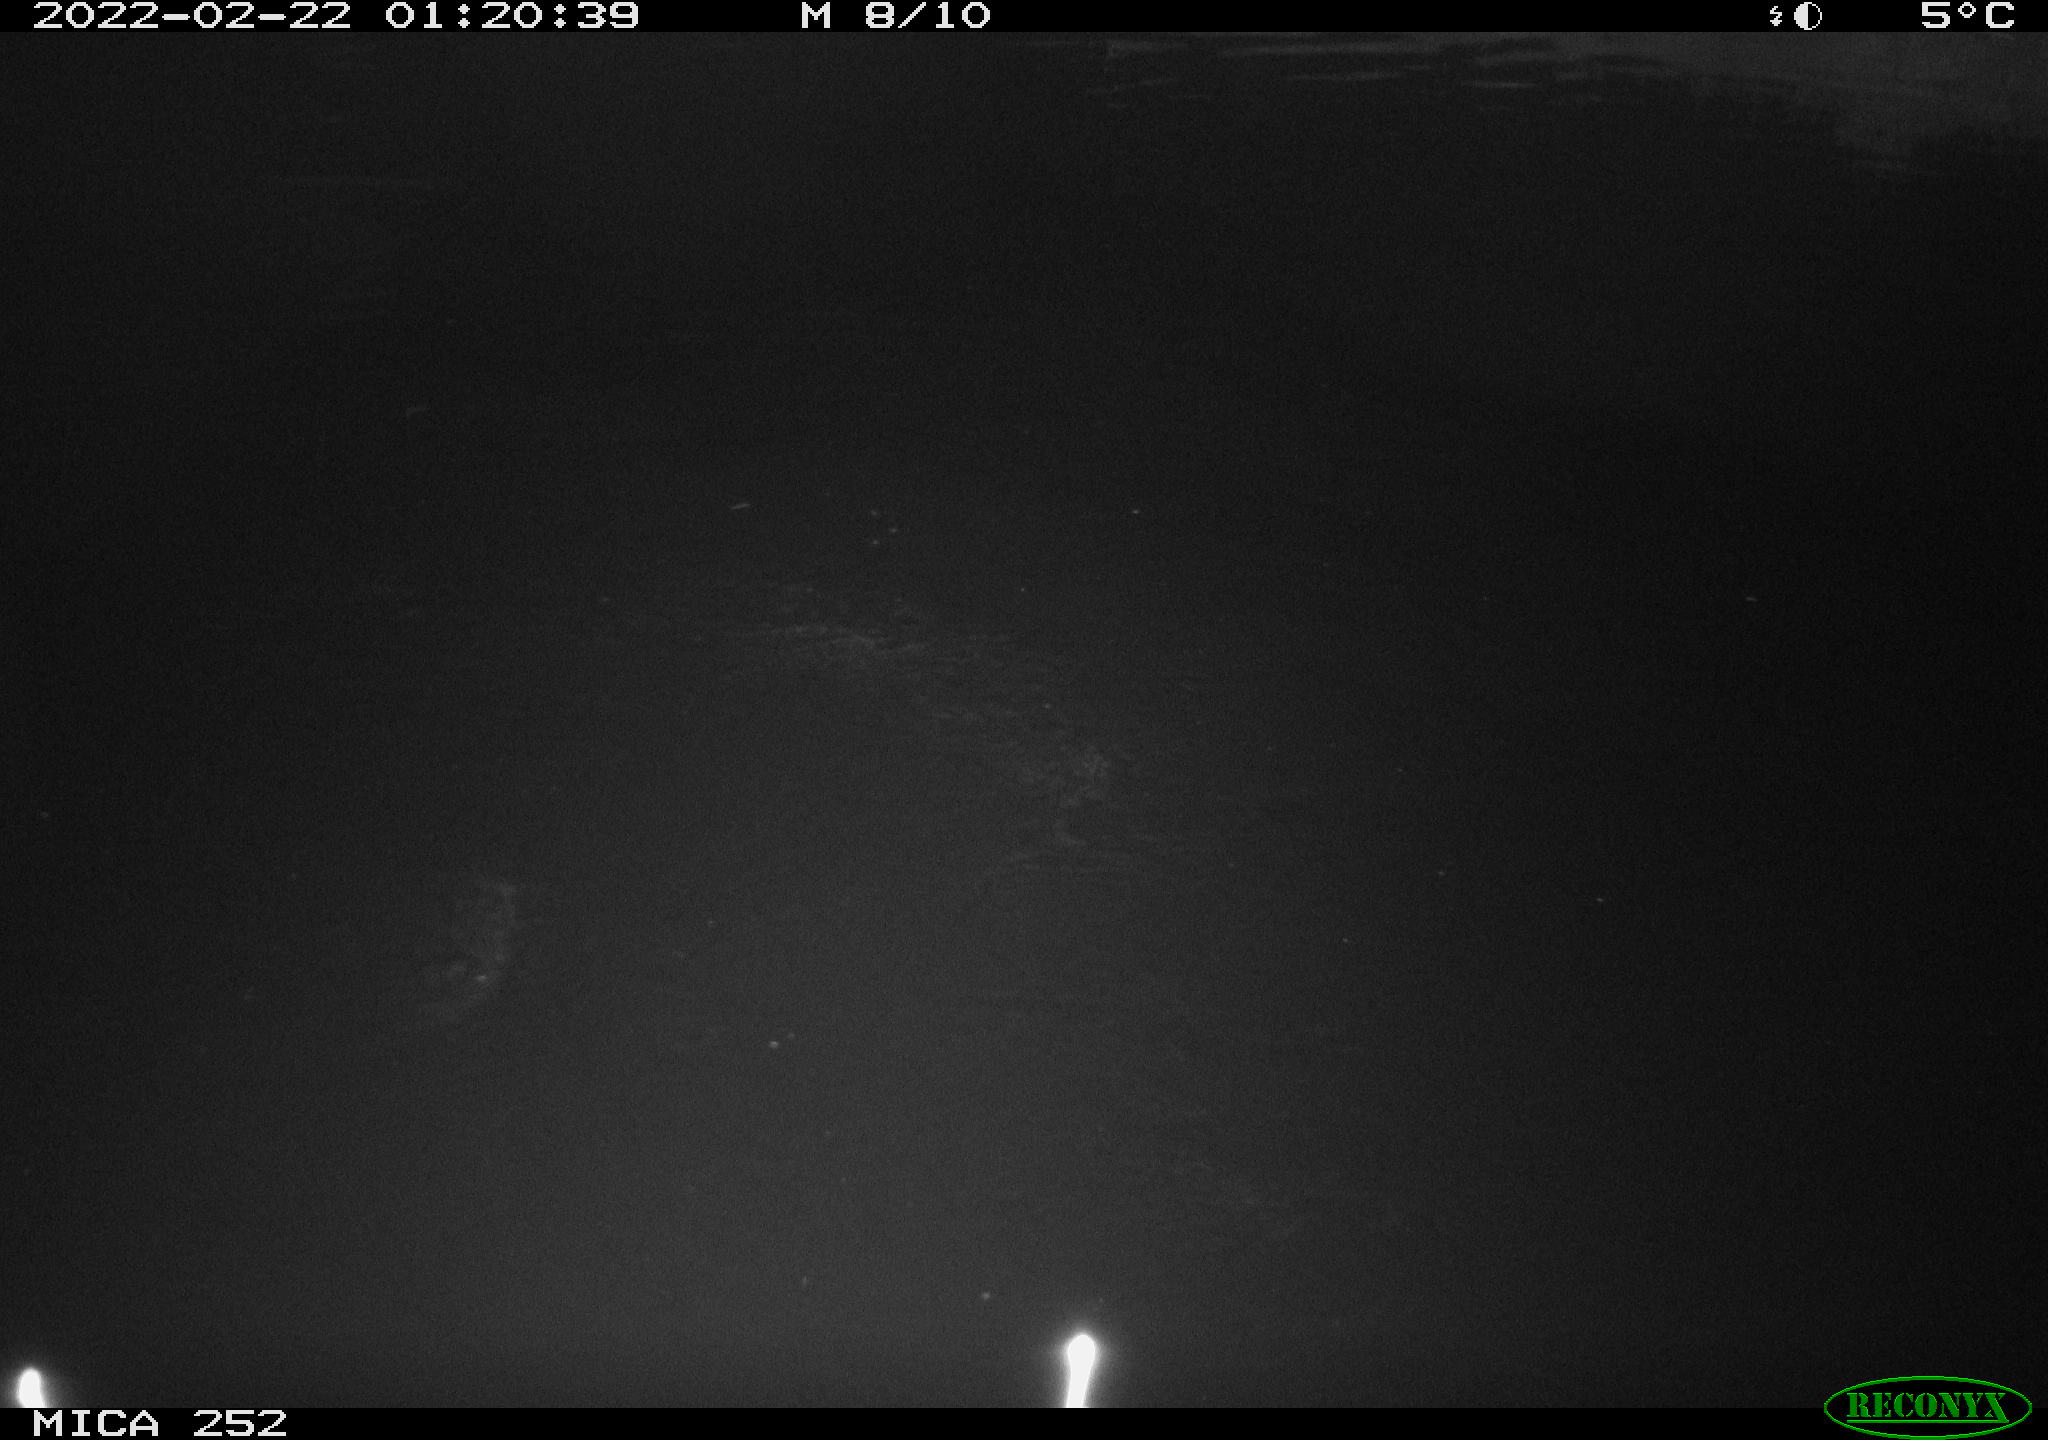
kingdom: Animalia
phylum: Chordata
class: Mammalia
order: Rodentia
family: Castoridae
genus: Castor
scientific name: Castor fiber
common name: Eurasian beaver
